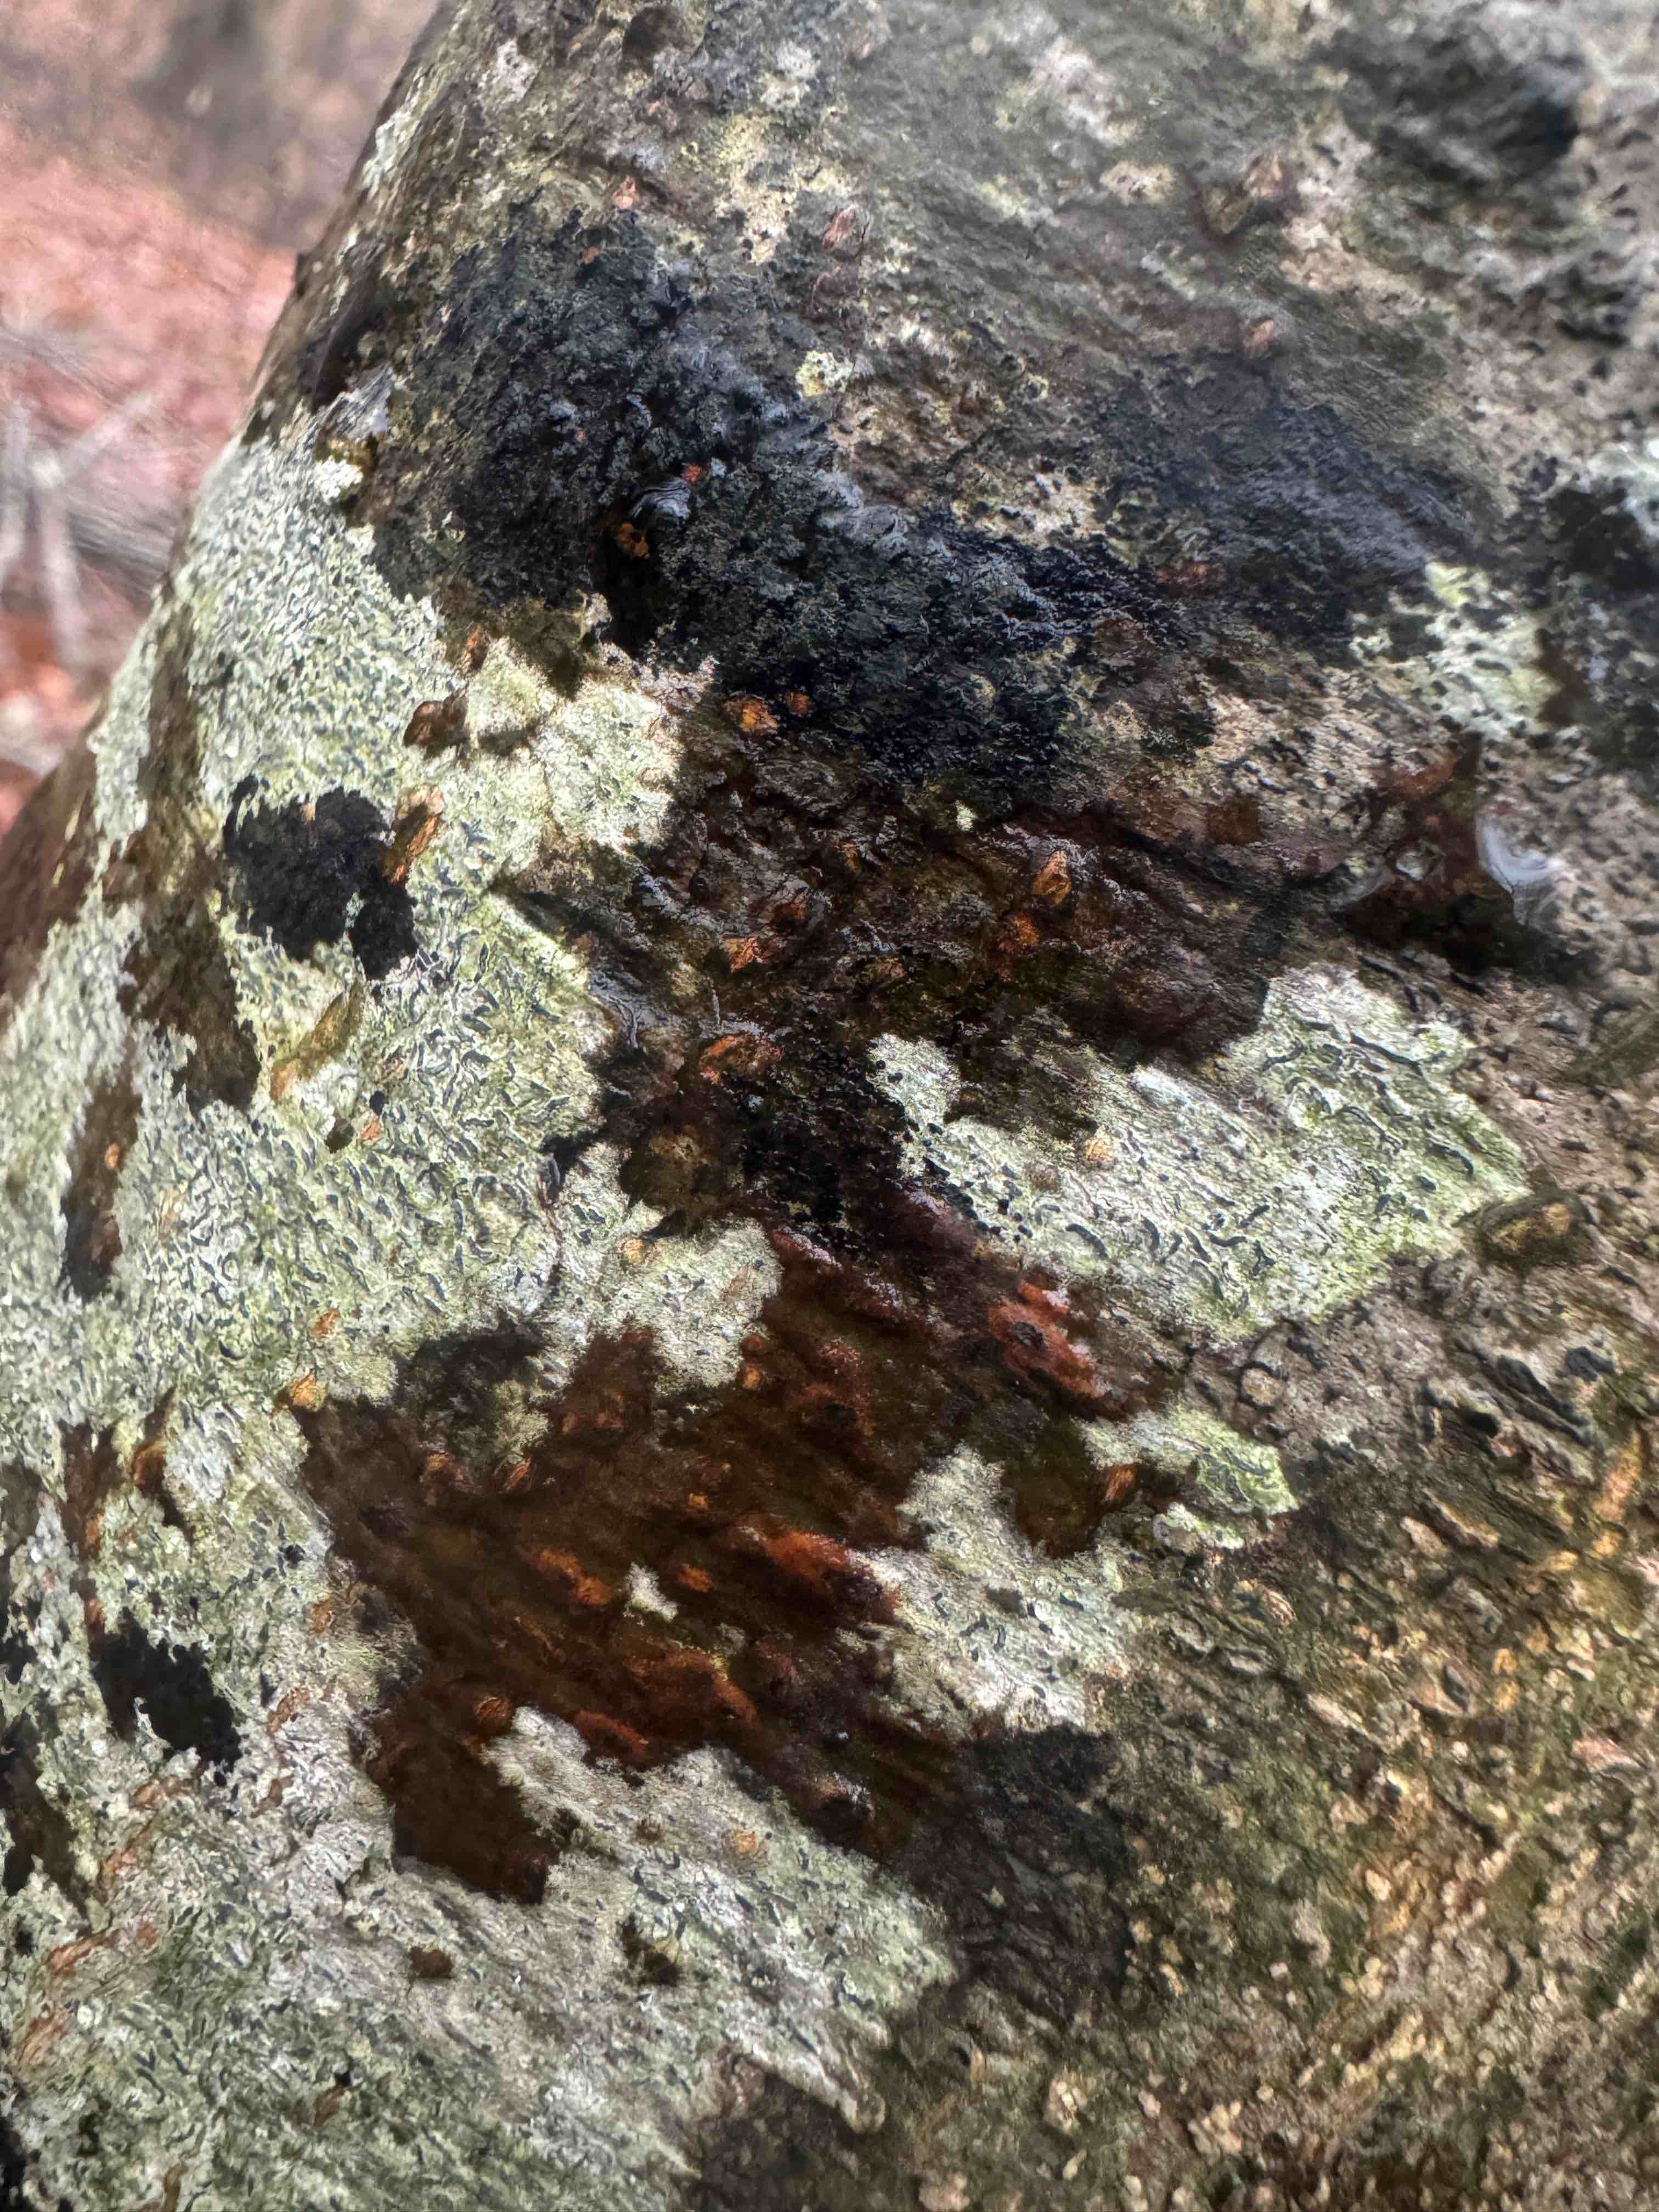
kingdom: Fungi
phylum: Ascomycota
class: Leotiomycetes
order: Rhytismatales
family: Ascodichaenaceae
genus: Ascodichaena
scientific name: Ascodichaena rugosa
